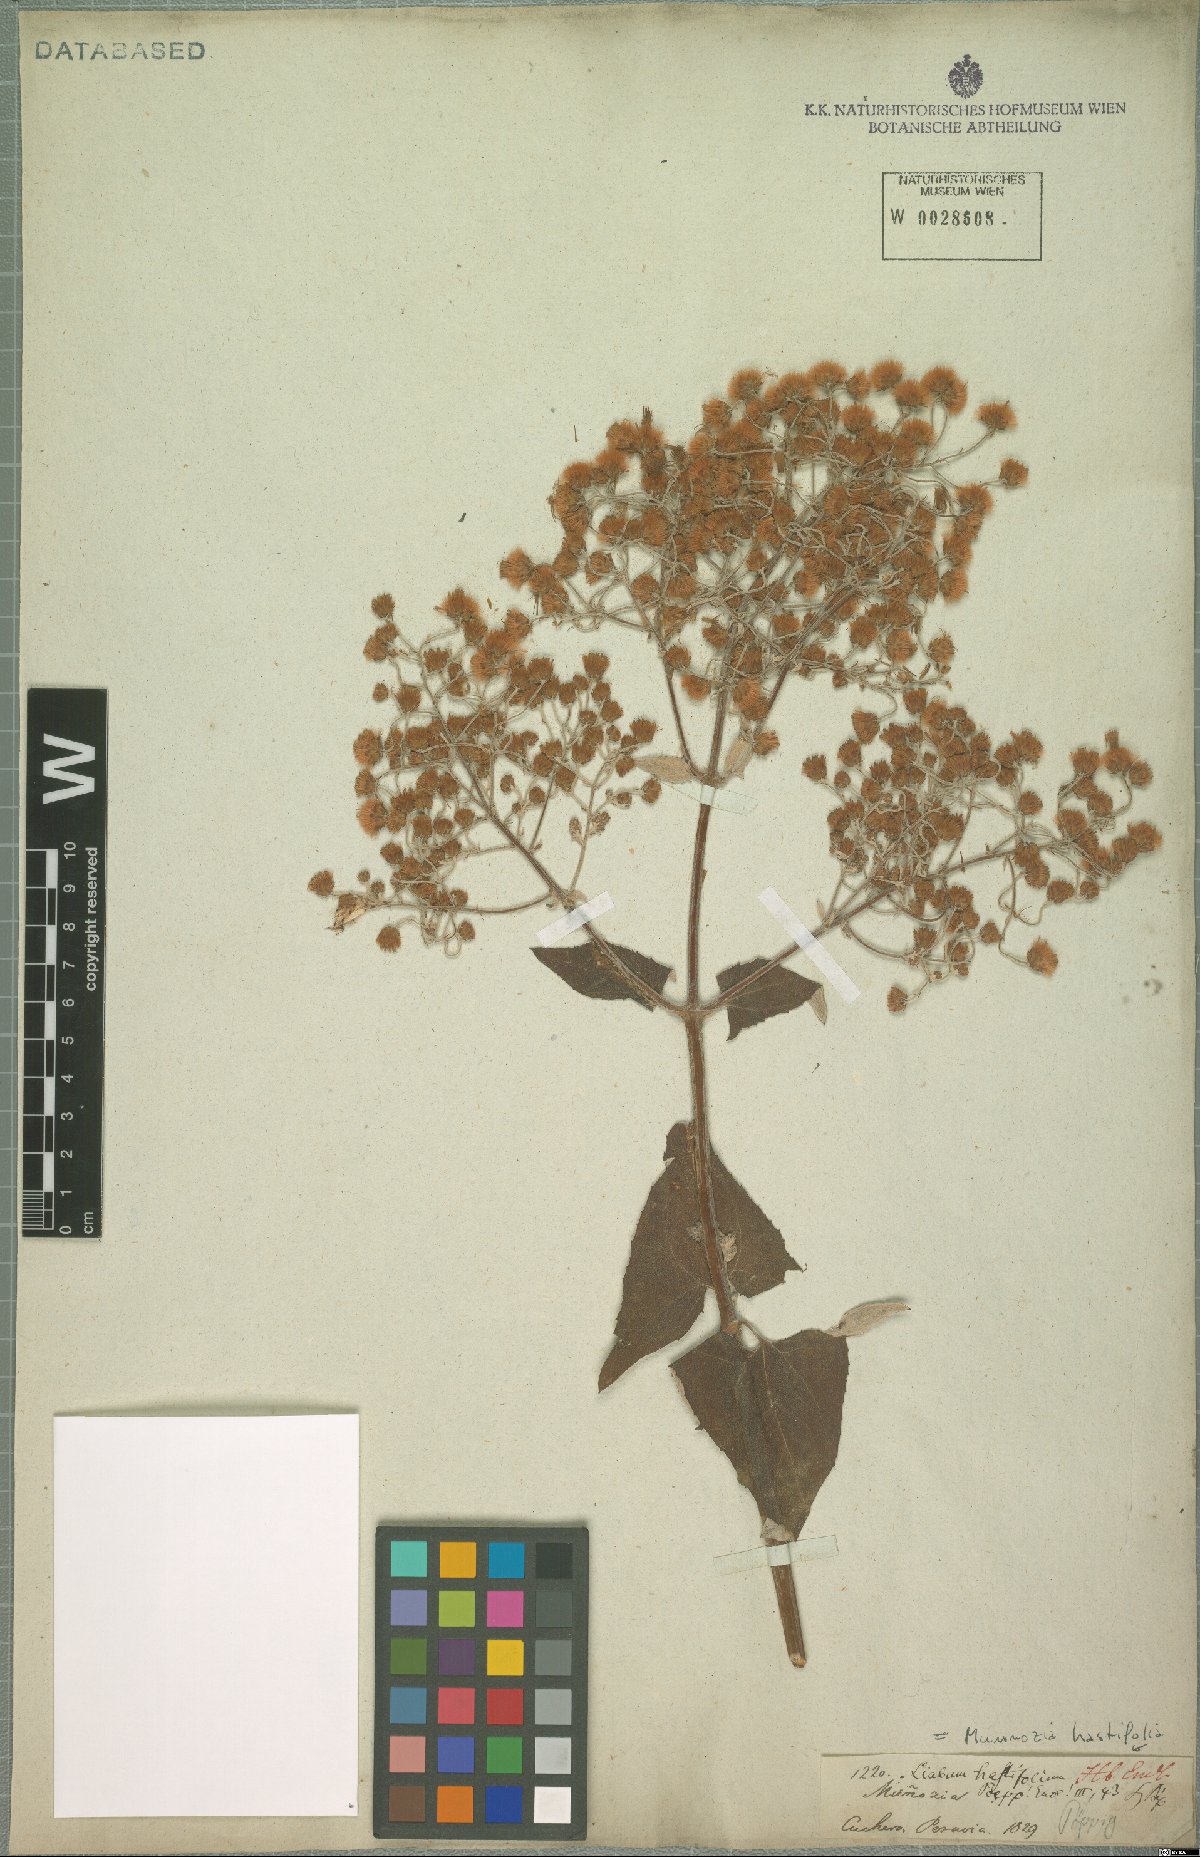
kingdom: Plantae
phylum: Tracheophyta
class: Magnoliopsida
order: Asterales
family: Asteraceae
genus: Munnozia
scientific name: Munnozia hastifolia
